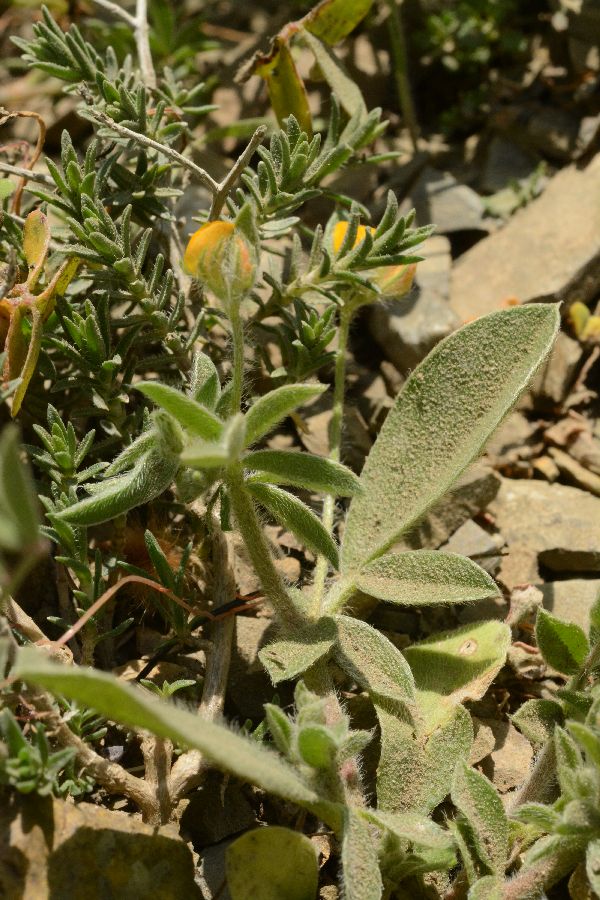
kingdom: Plantae
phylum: Tracheophyta
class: Magnoliopsida
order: Fabales
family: Fabaceae
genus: Anthyllis
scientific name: Anthyllis circinnata
